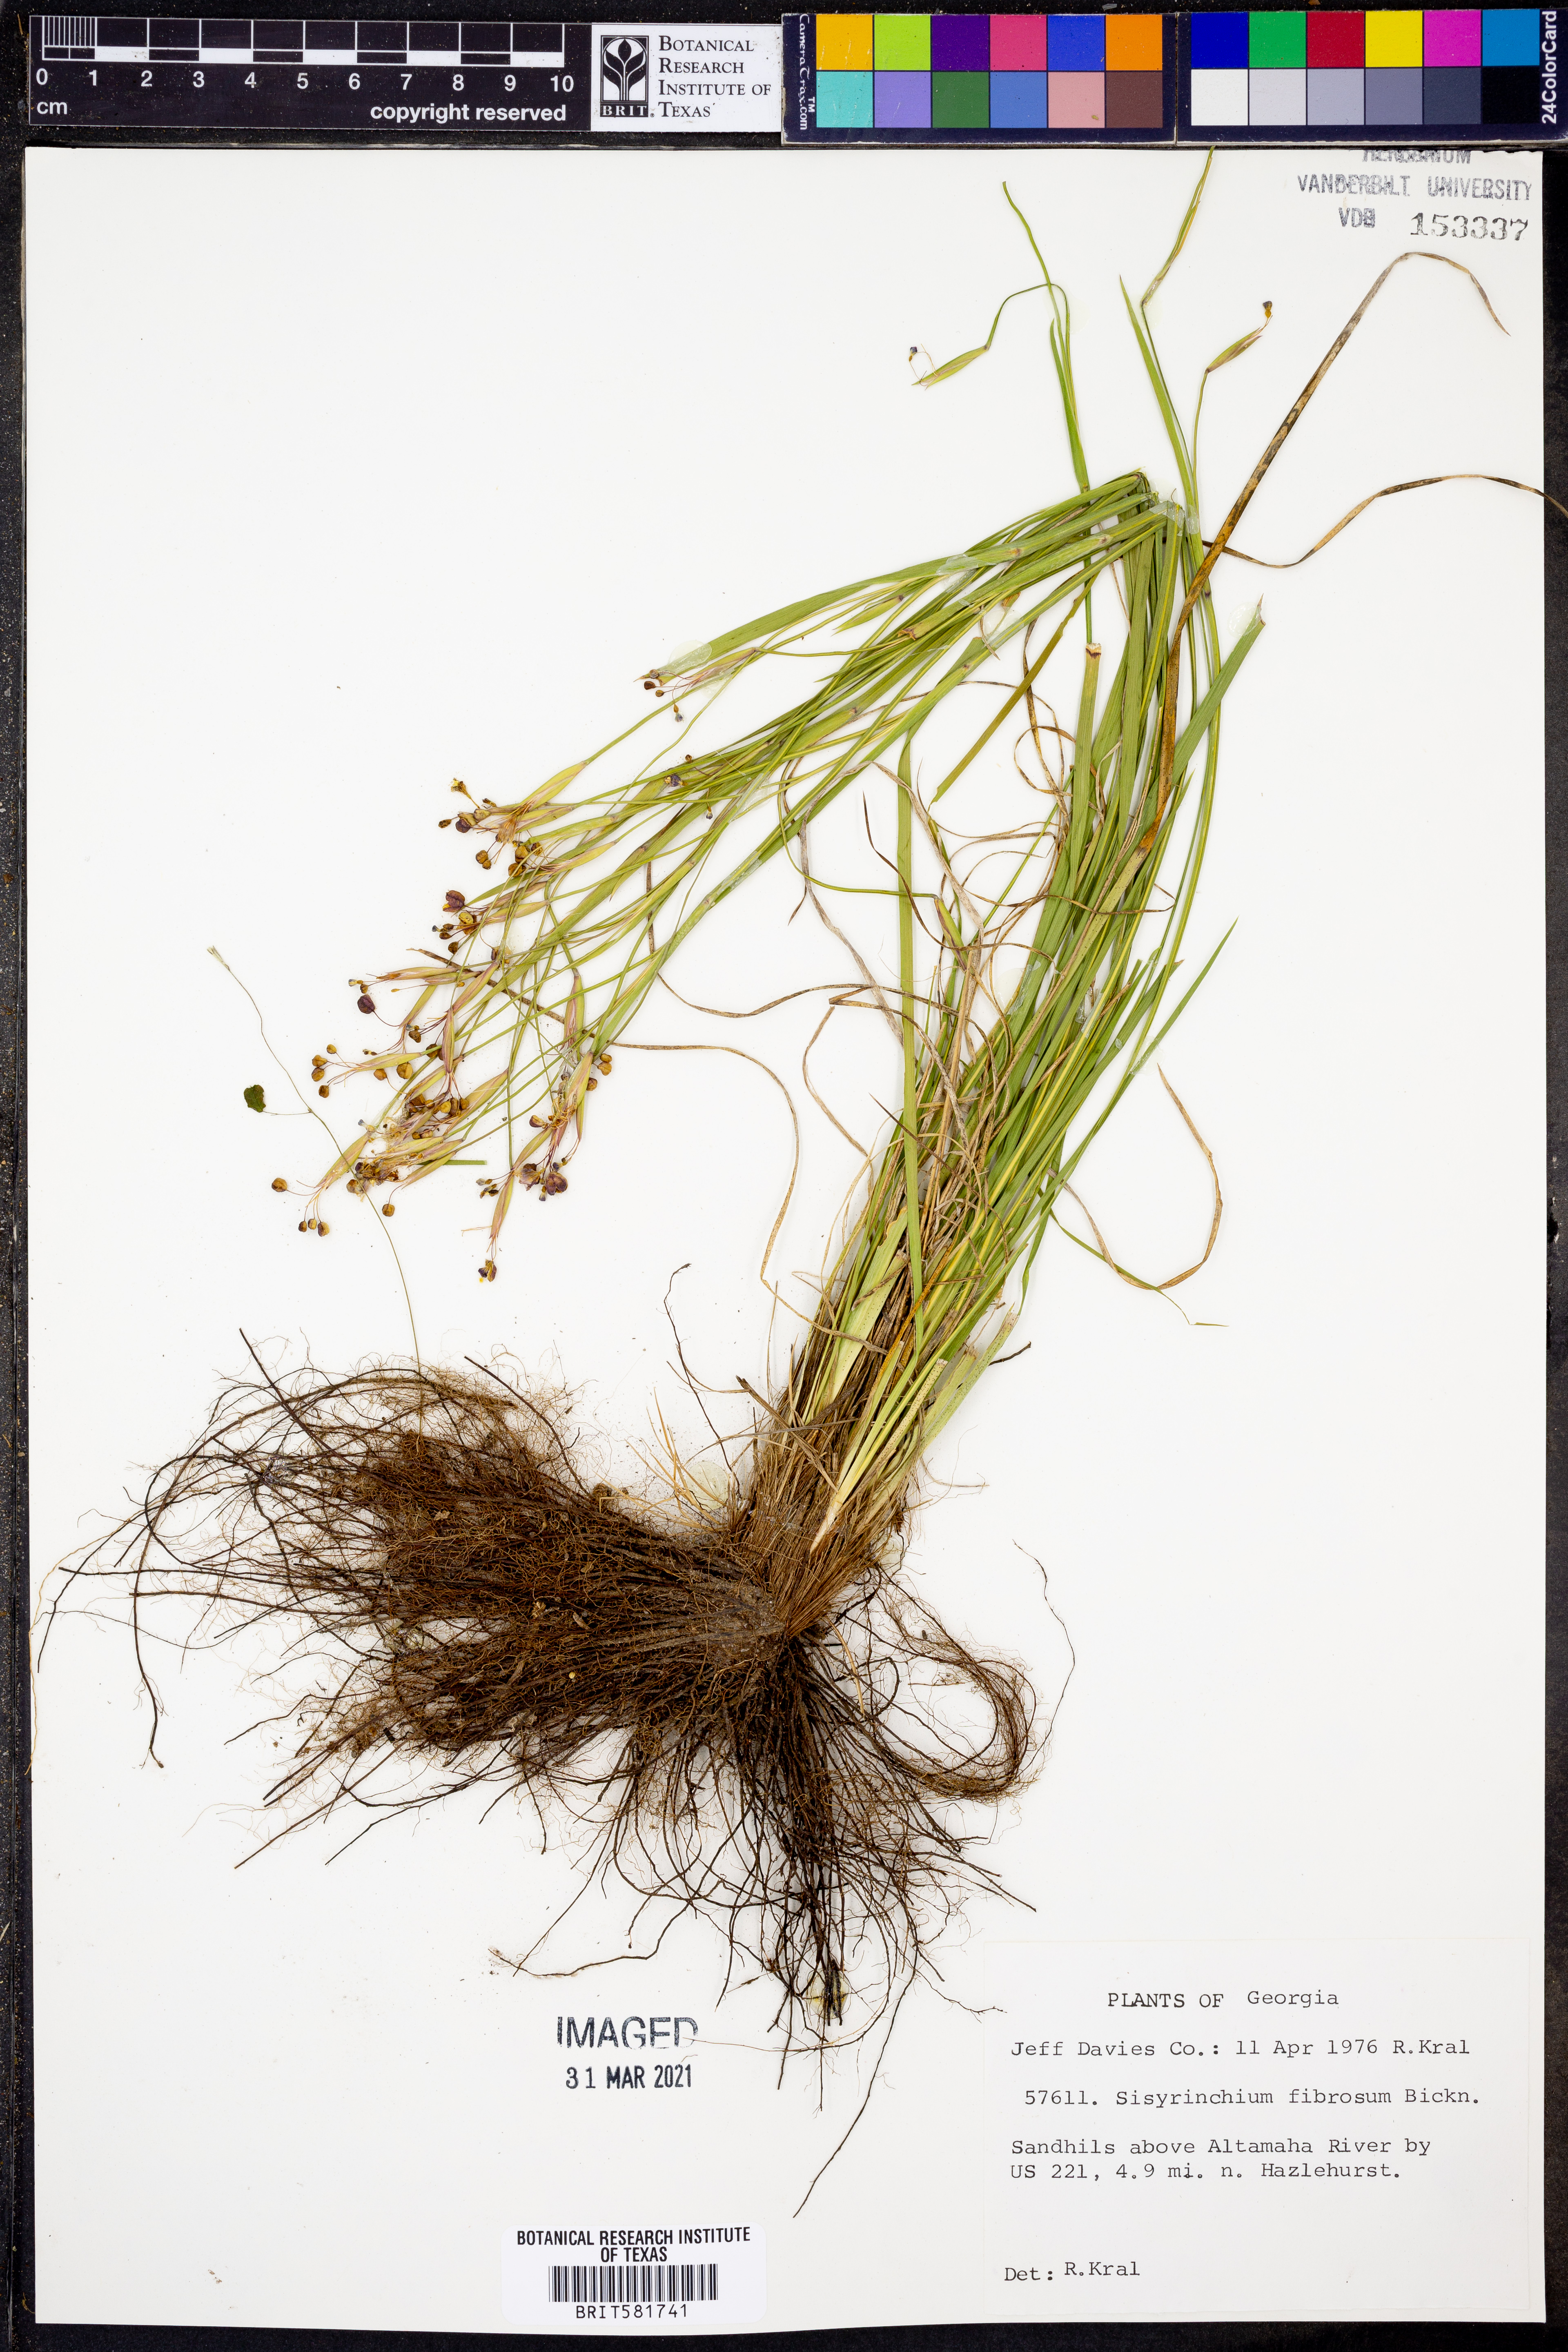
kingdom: Plantae
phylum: Tracheophyta
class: Liliopsida
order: Asparagales
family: Iridaceae
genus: Sisyrinchium
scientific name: Sisyrinchium nashii
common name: Nash's blue-eyed-grass
